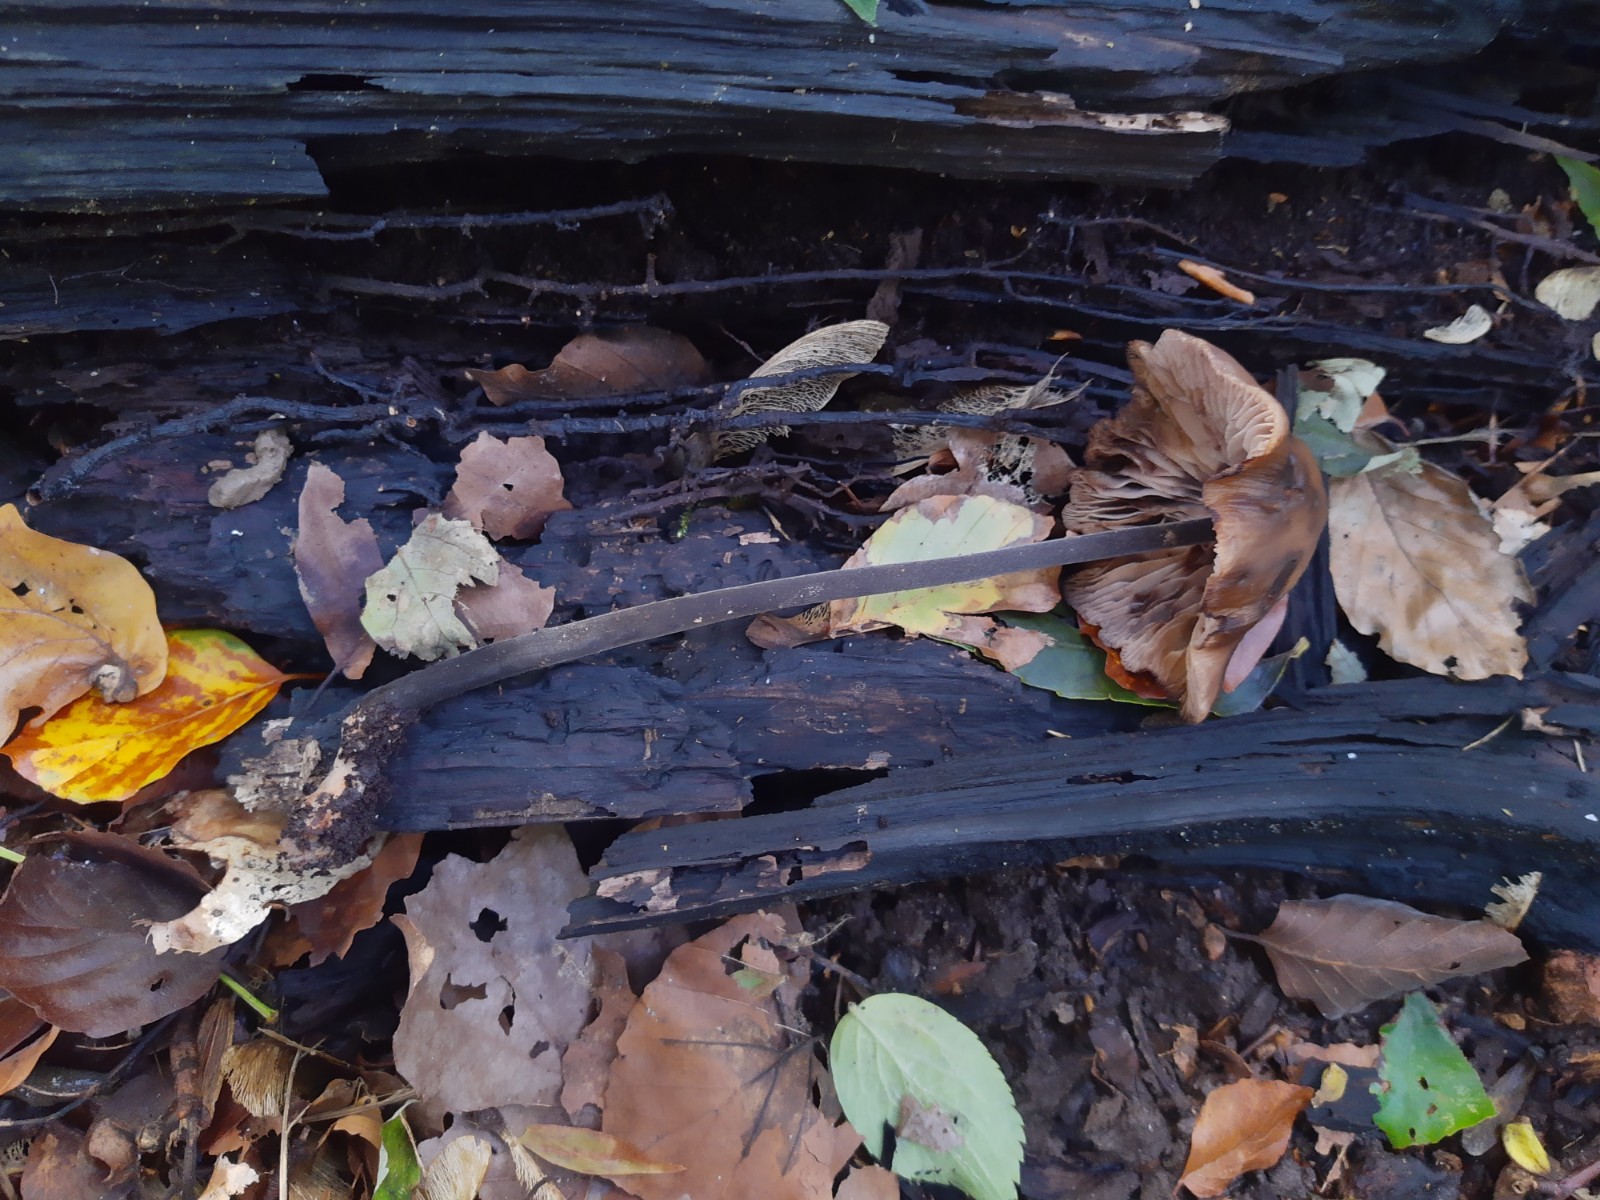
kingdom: Fungi
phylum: Basidiomycota
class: Agaricomycetes
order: Agaricales
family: Omphalotaceae
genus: Mycetinis
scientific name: Mycetinis alliaceus
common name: stor løghat
